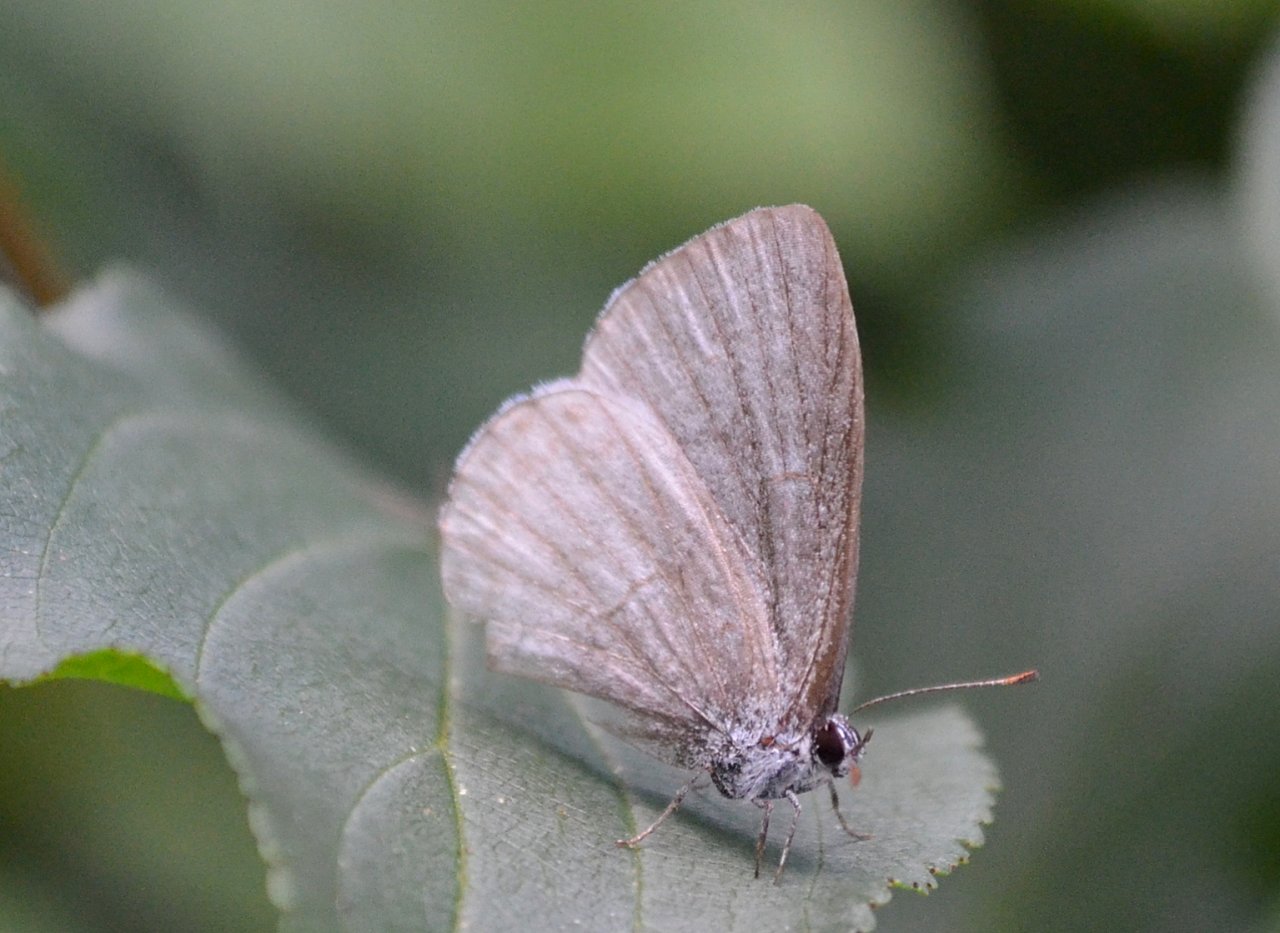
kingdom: Animalia
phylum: Arthropoda
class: Insecta
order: Lepidoptera
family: Lycaenidae
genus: Celastrina
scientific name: Celastrina lucia
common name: Northern Spring Azure
